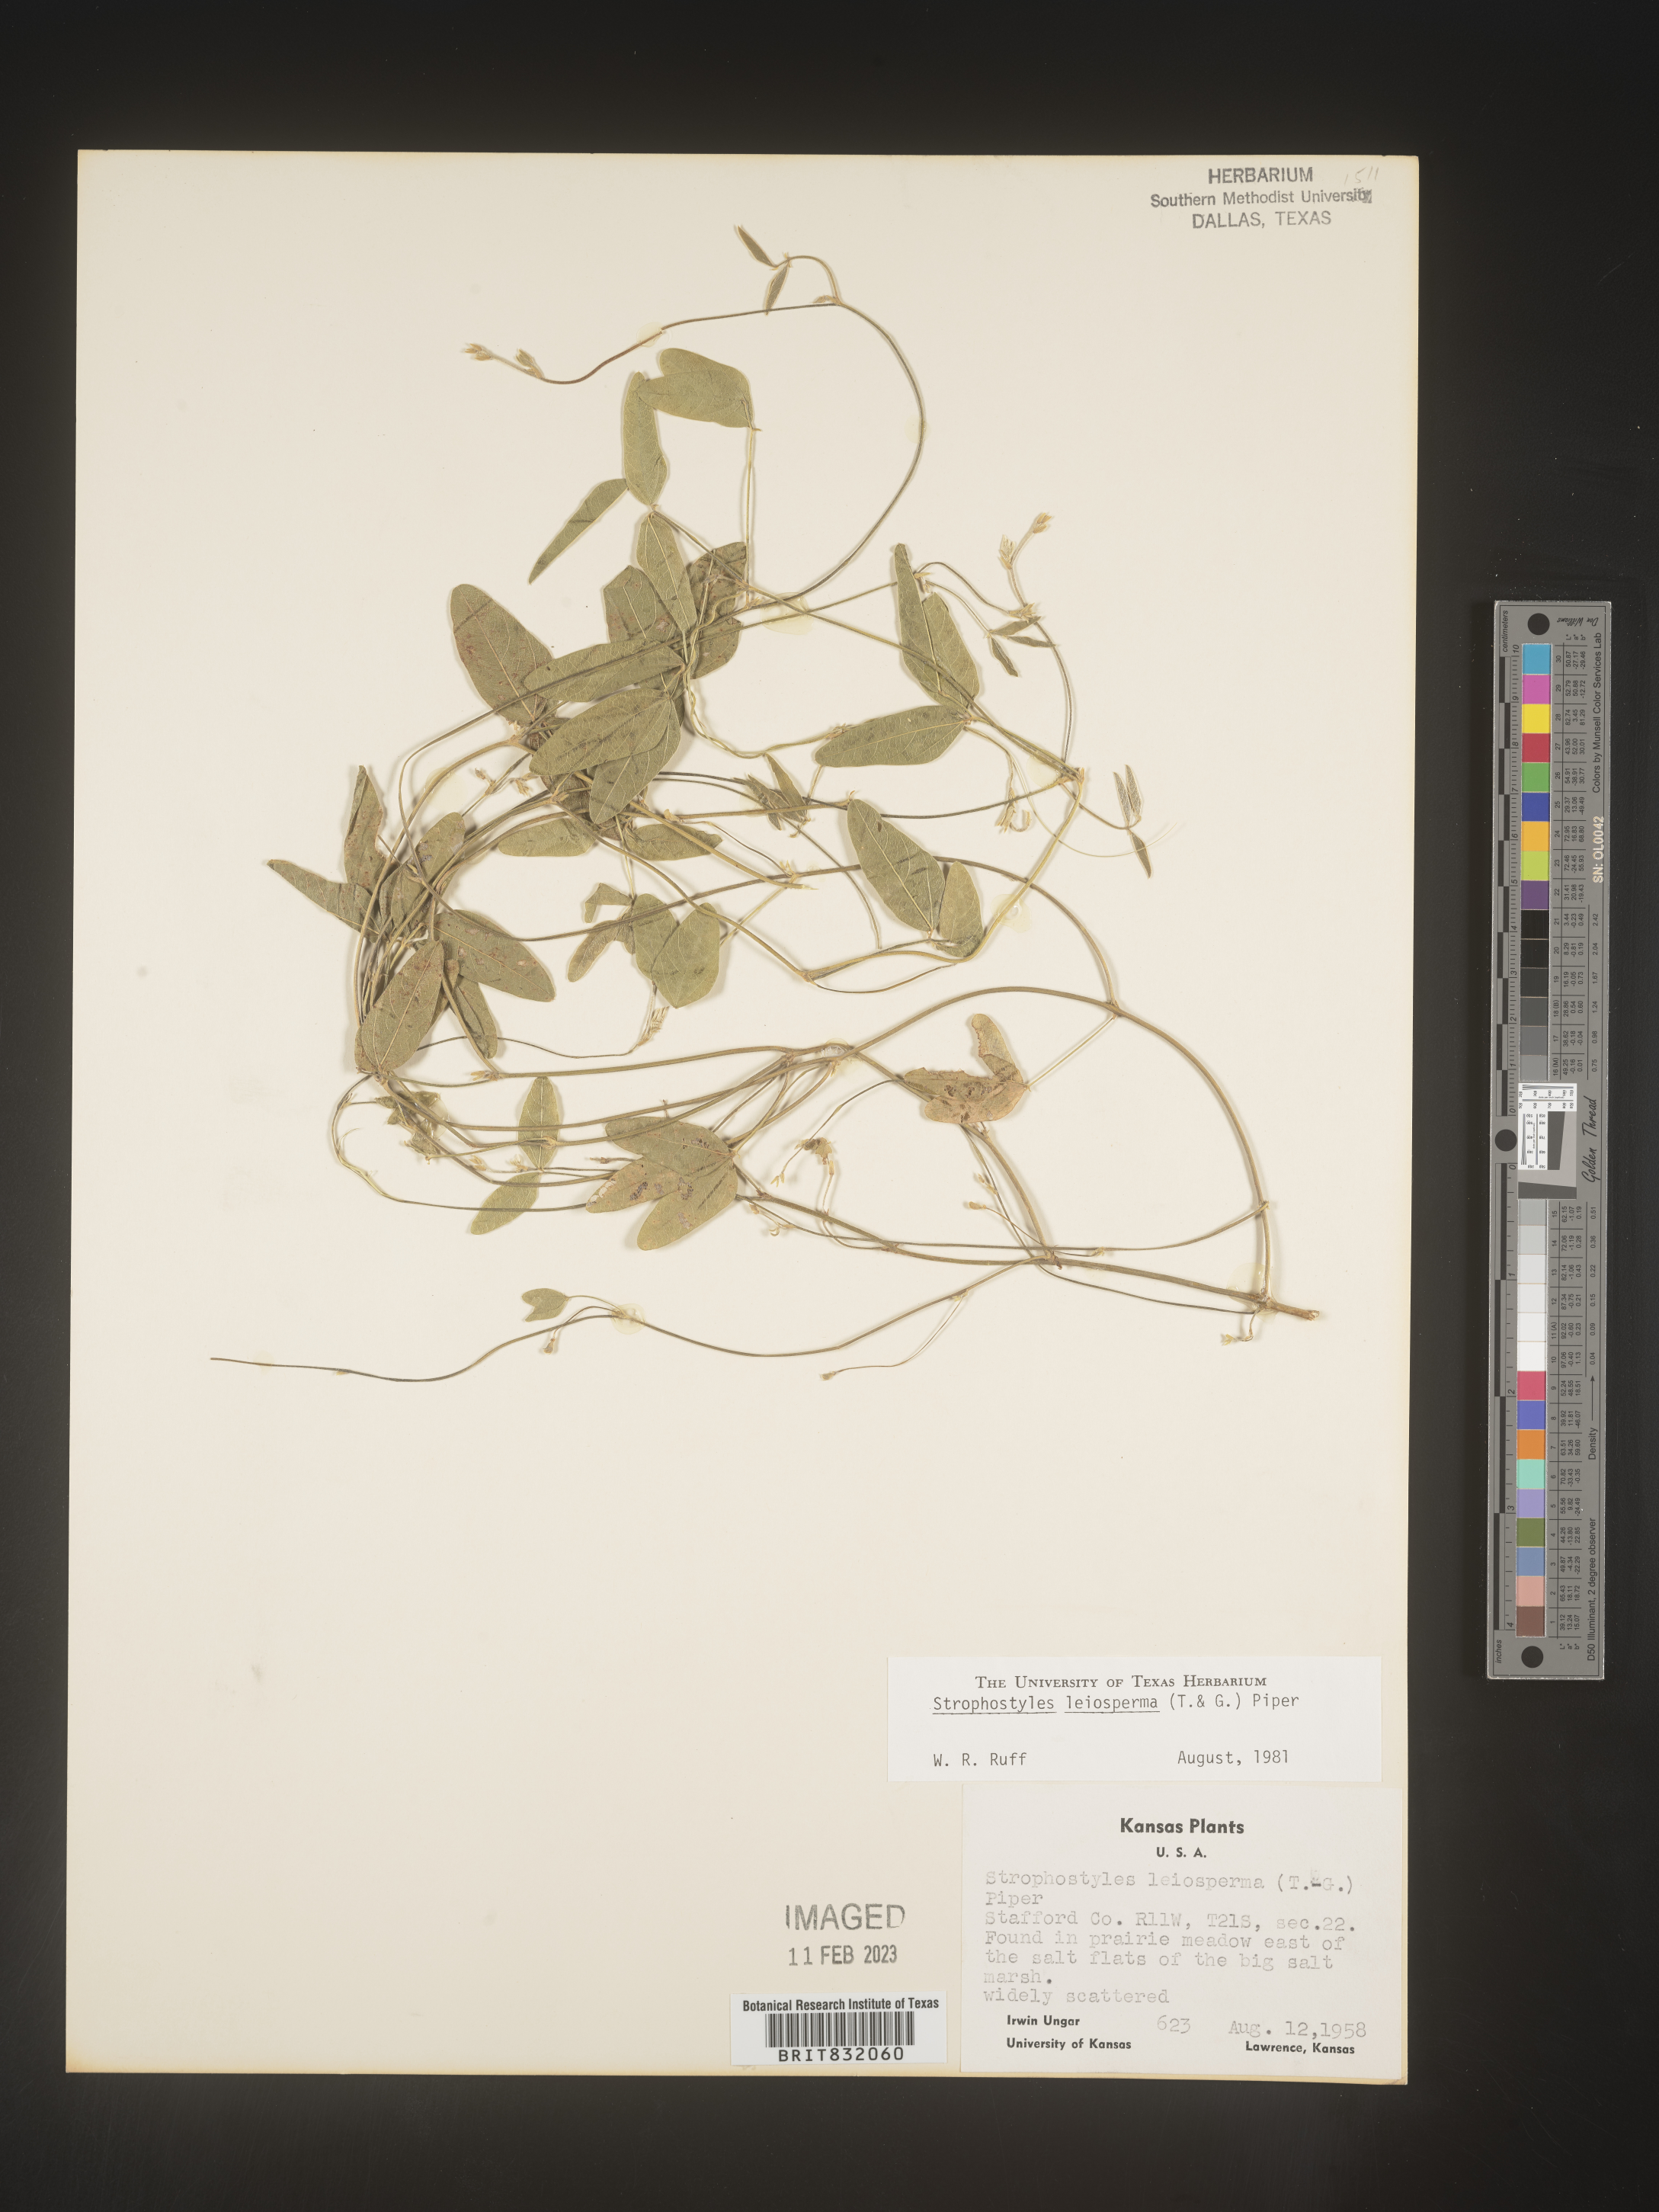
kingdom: Plantae
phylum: Tracheophyta
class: Magnoliopsida
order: Fabales
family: Fabaceae
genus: Strophostyles
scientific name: Strophostyles leiosperma
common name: Smooth-seed wild bean
